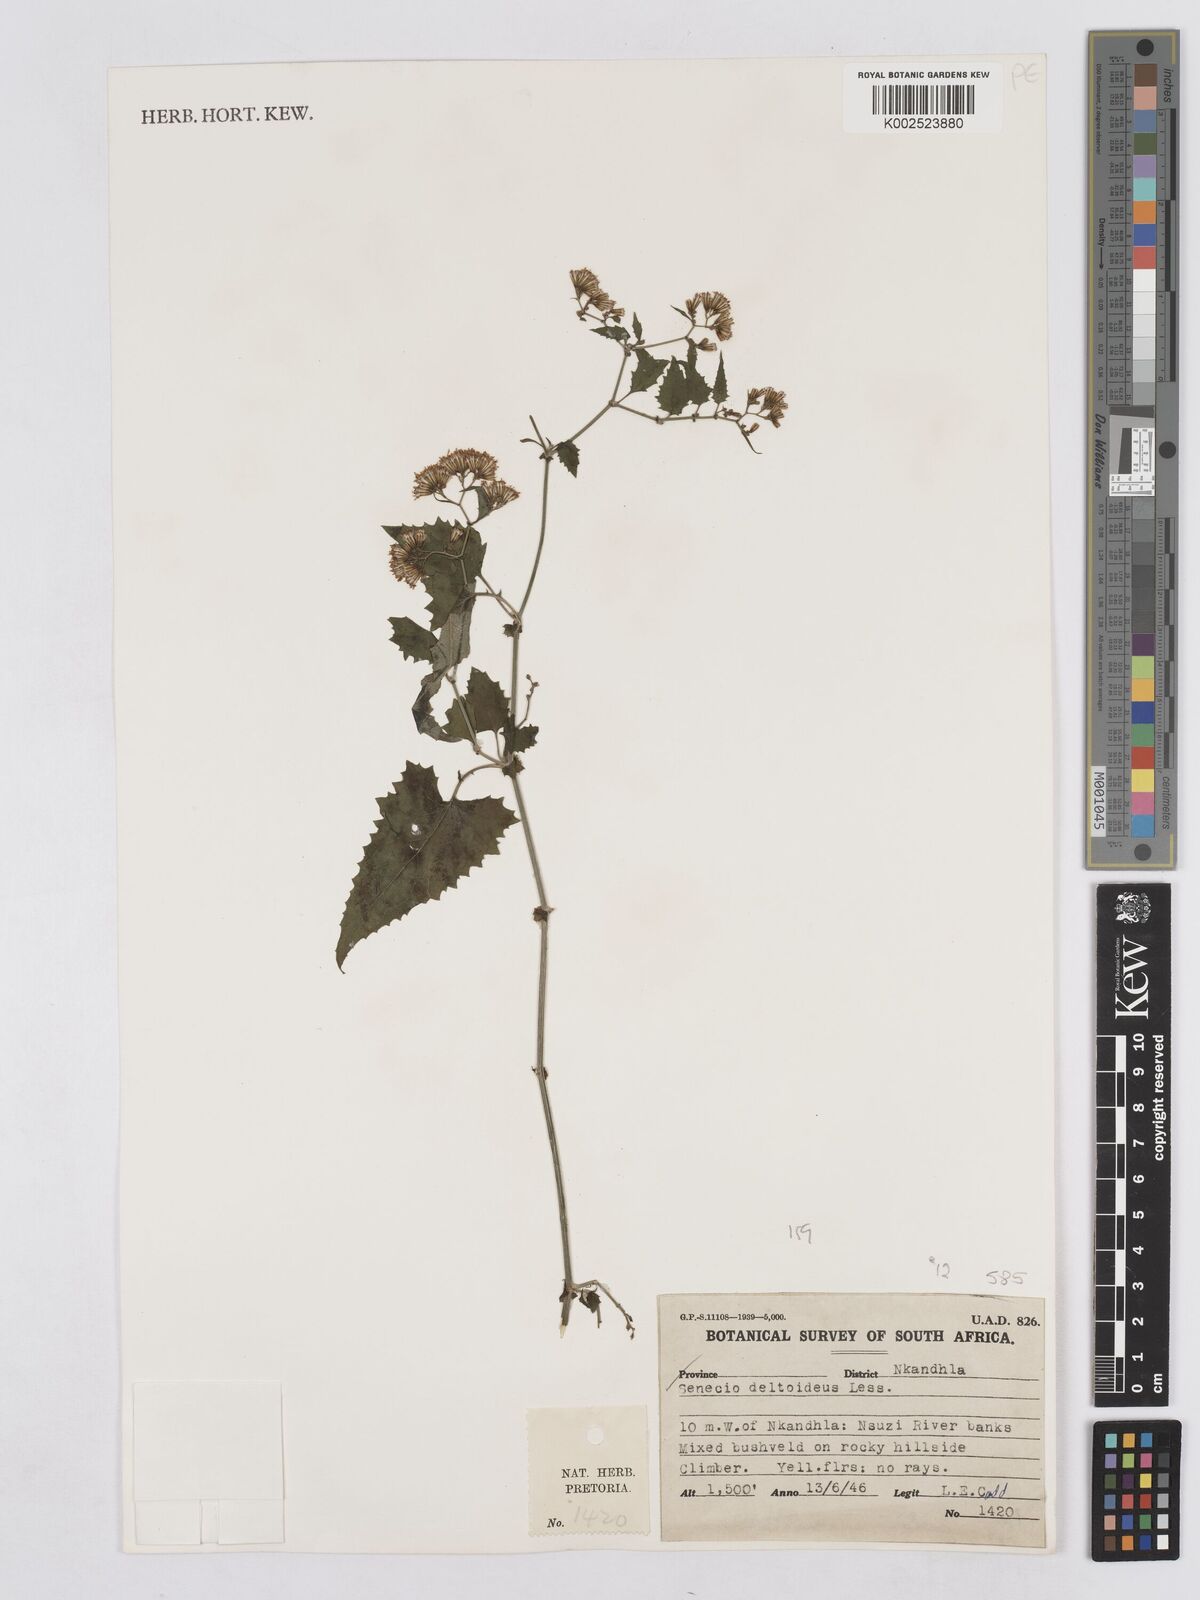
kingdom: Plantae
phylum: Tracheophyta
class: Magnoliopsida
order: Asterales
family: Asteraceae
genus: Senecio
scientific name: Senecio deltoideus
